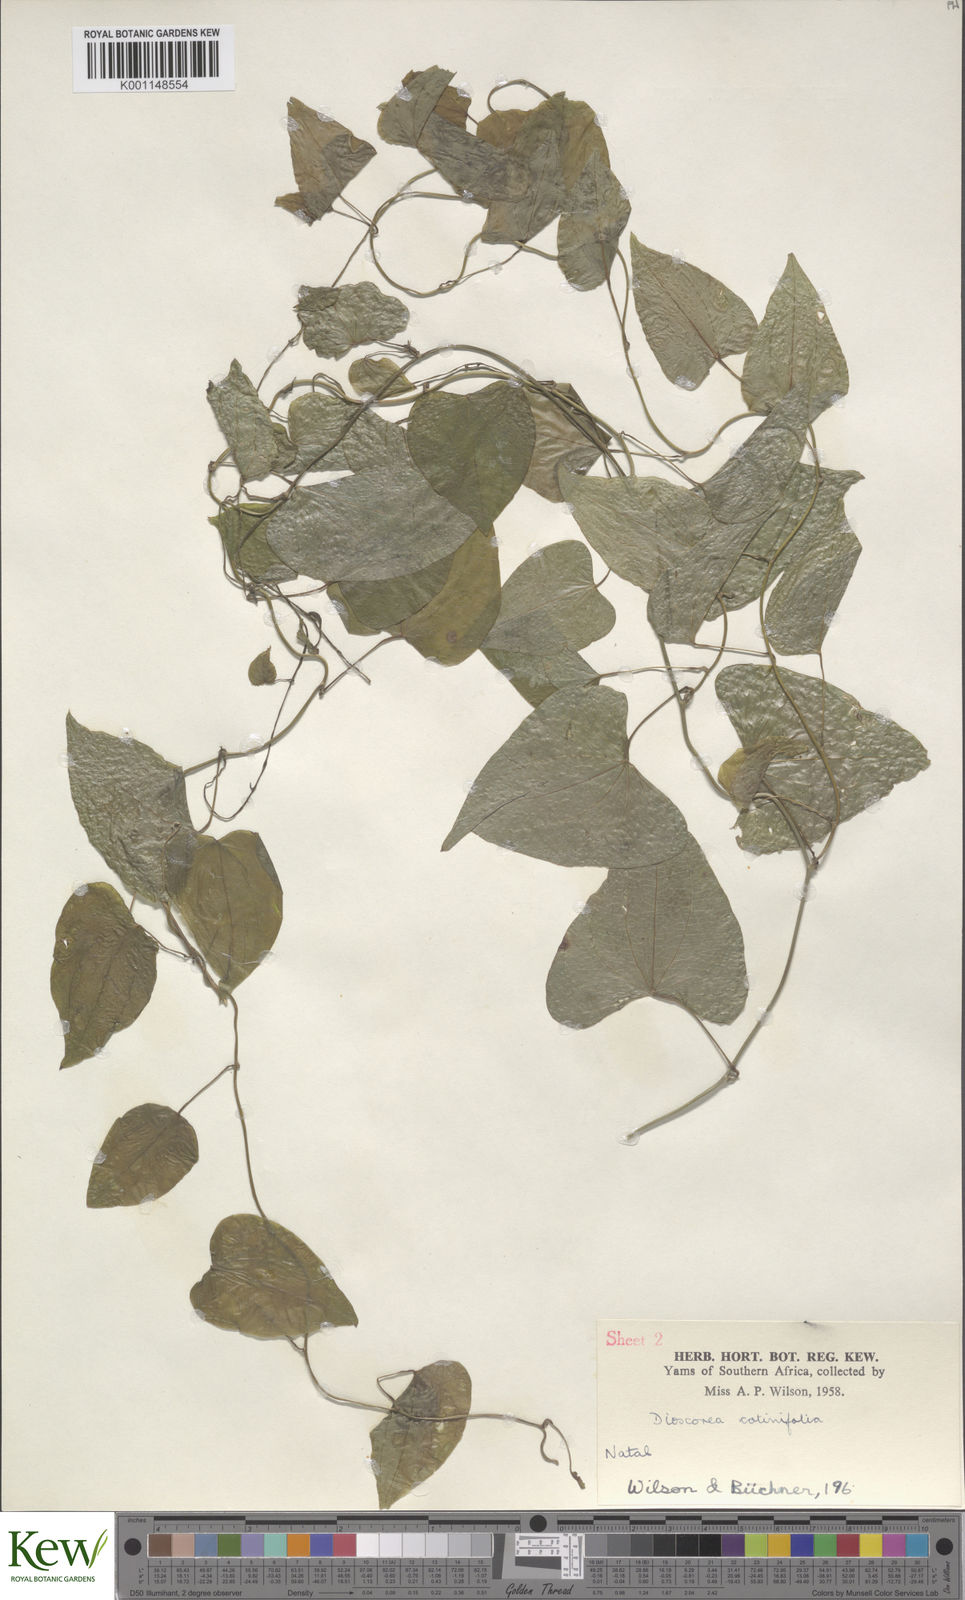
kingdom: Plantae
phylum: Tracheophyta
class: Liliopsida
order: Dioscoreales
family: Dioscoreaceae
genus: Dioscorea
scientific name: Dioscorea cotinifolia
